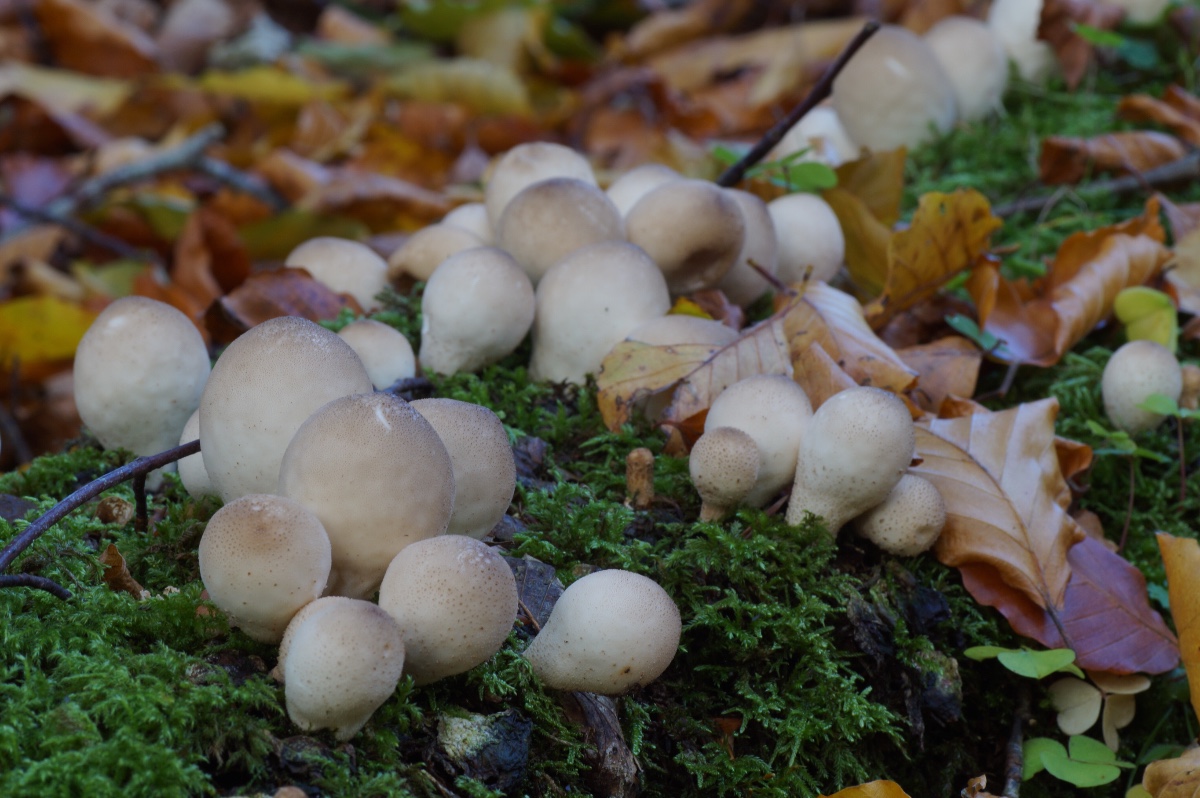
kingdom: Fungi
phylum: Basidiomycota
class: Agaricomycetes
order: Agaricales
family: Lycoperdaceae
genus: Apioperdon
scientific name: Apioperdon pyriforme
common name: pære-støvbold
